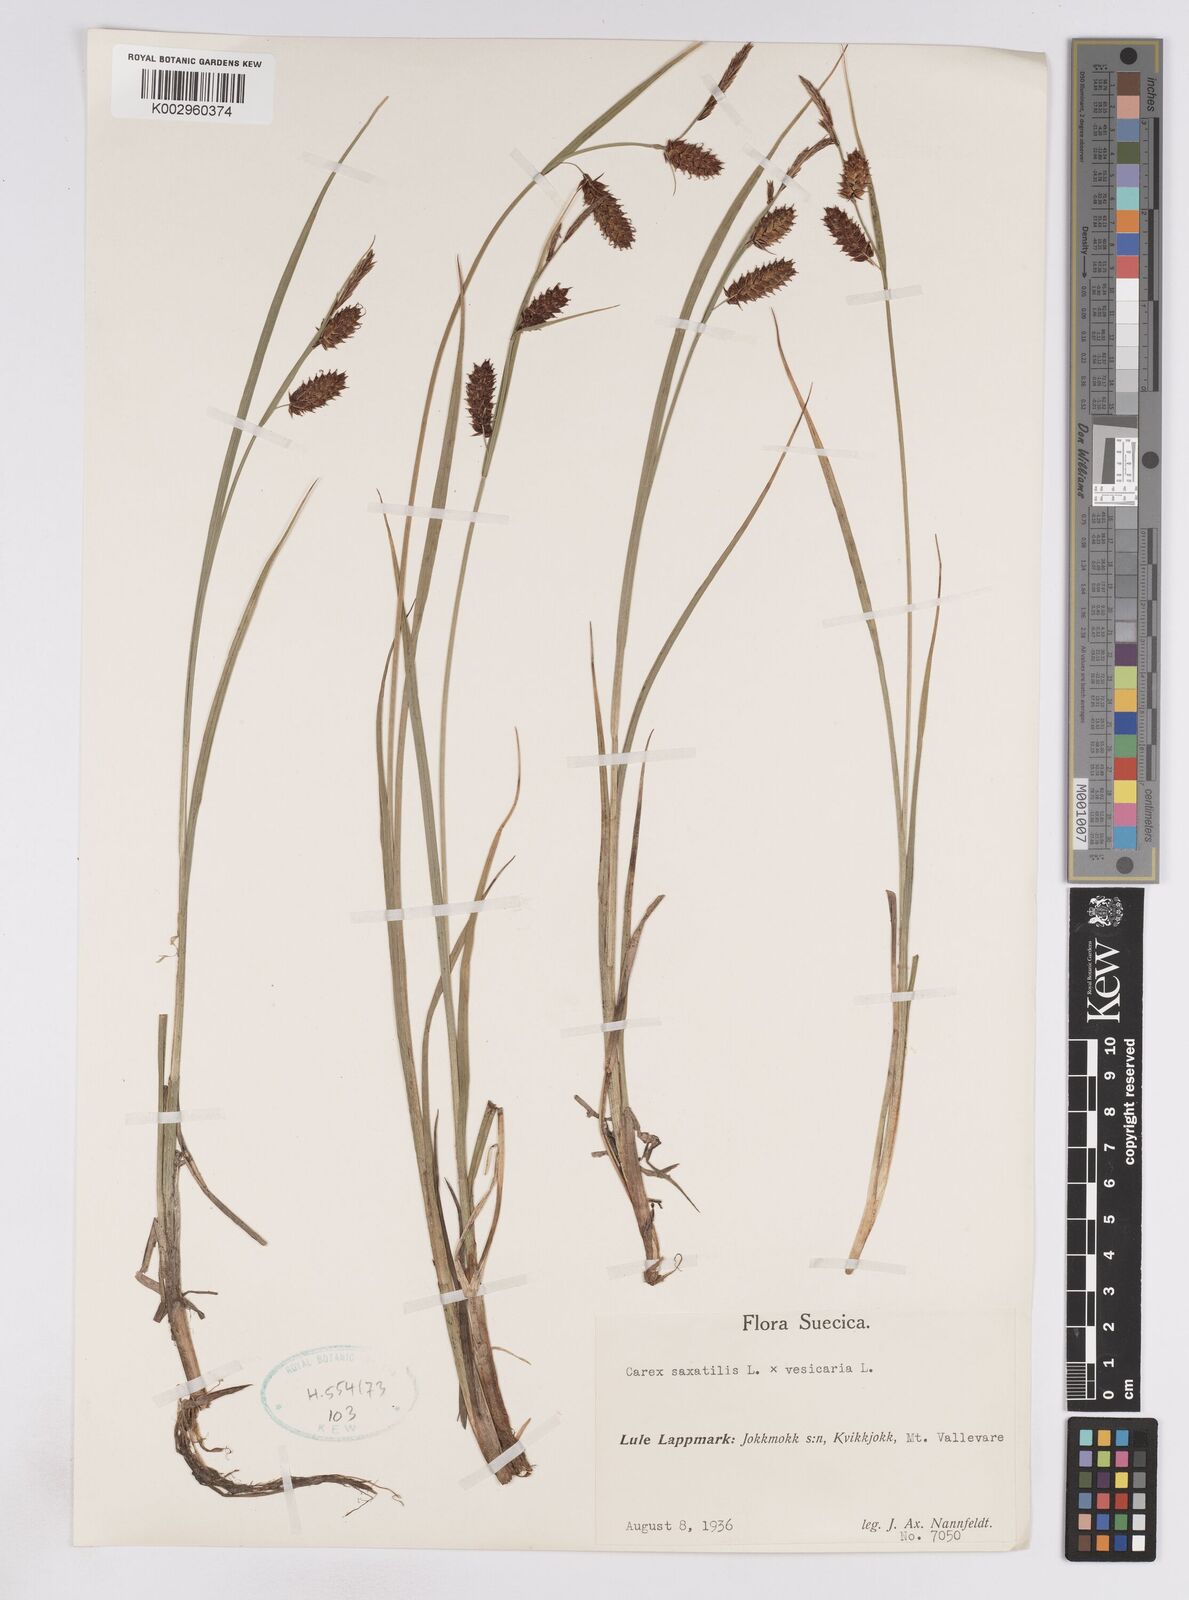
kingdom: Plantae
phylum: Tracheophyta
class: Liliopsida
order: Poales
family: Cyperaceae
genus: Carex
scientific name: Carex vesicaria
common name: Bladder-sedge
